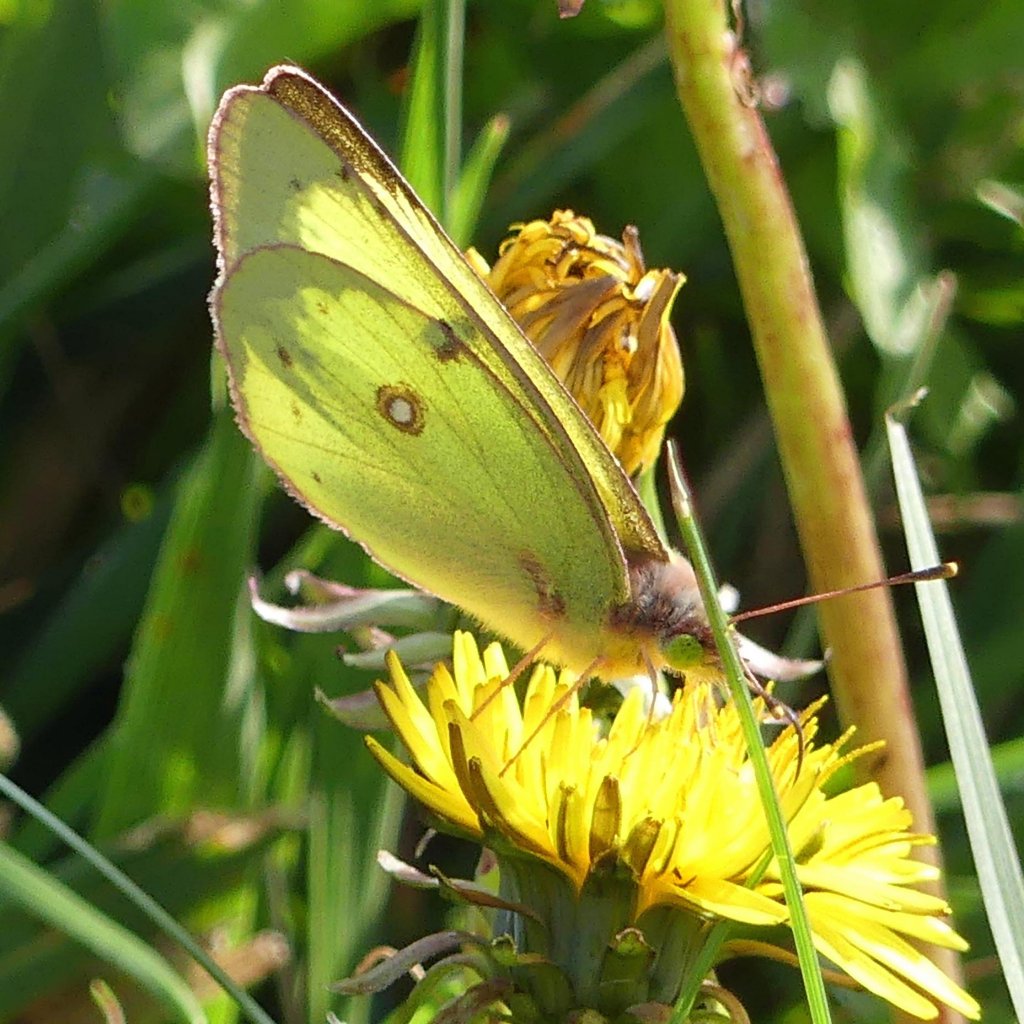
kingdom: Animalia
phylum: Arthropoda
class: Insecta
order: Lepidoptera
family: Pieridae
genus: Colias
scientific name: Colias philodice
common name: Clouded Sulphur
